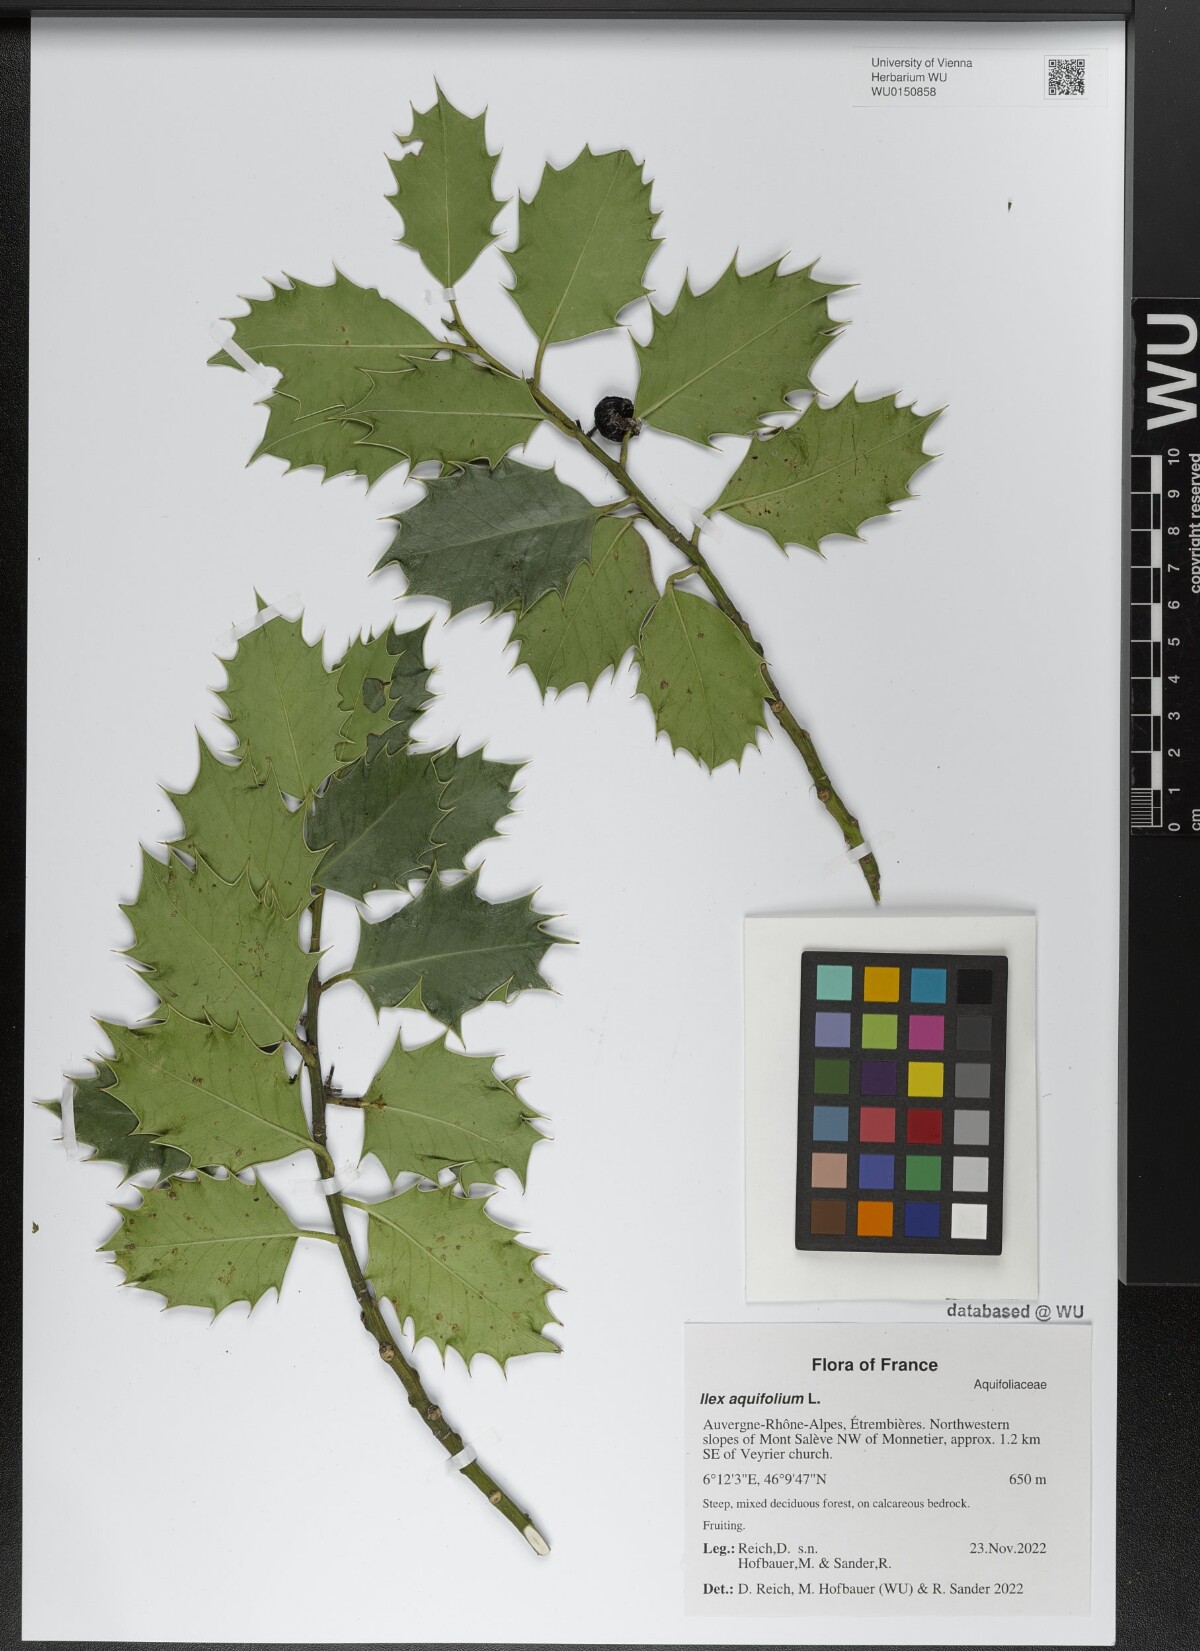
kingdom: Plantae
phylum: Tracheophyta
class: Magnoliopsida
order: Aquifoliales
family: Aquifoliaceae
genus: Ilex
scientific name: Ilex aquifolium
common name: English holly
